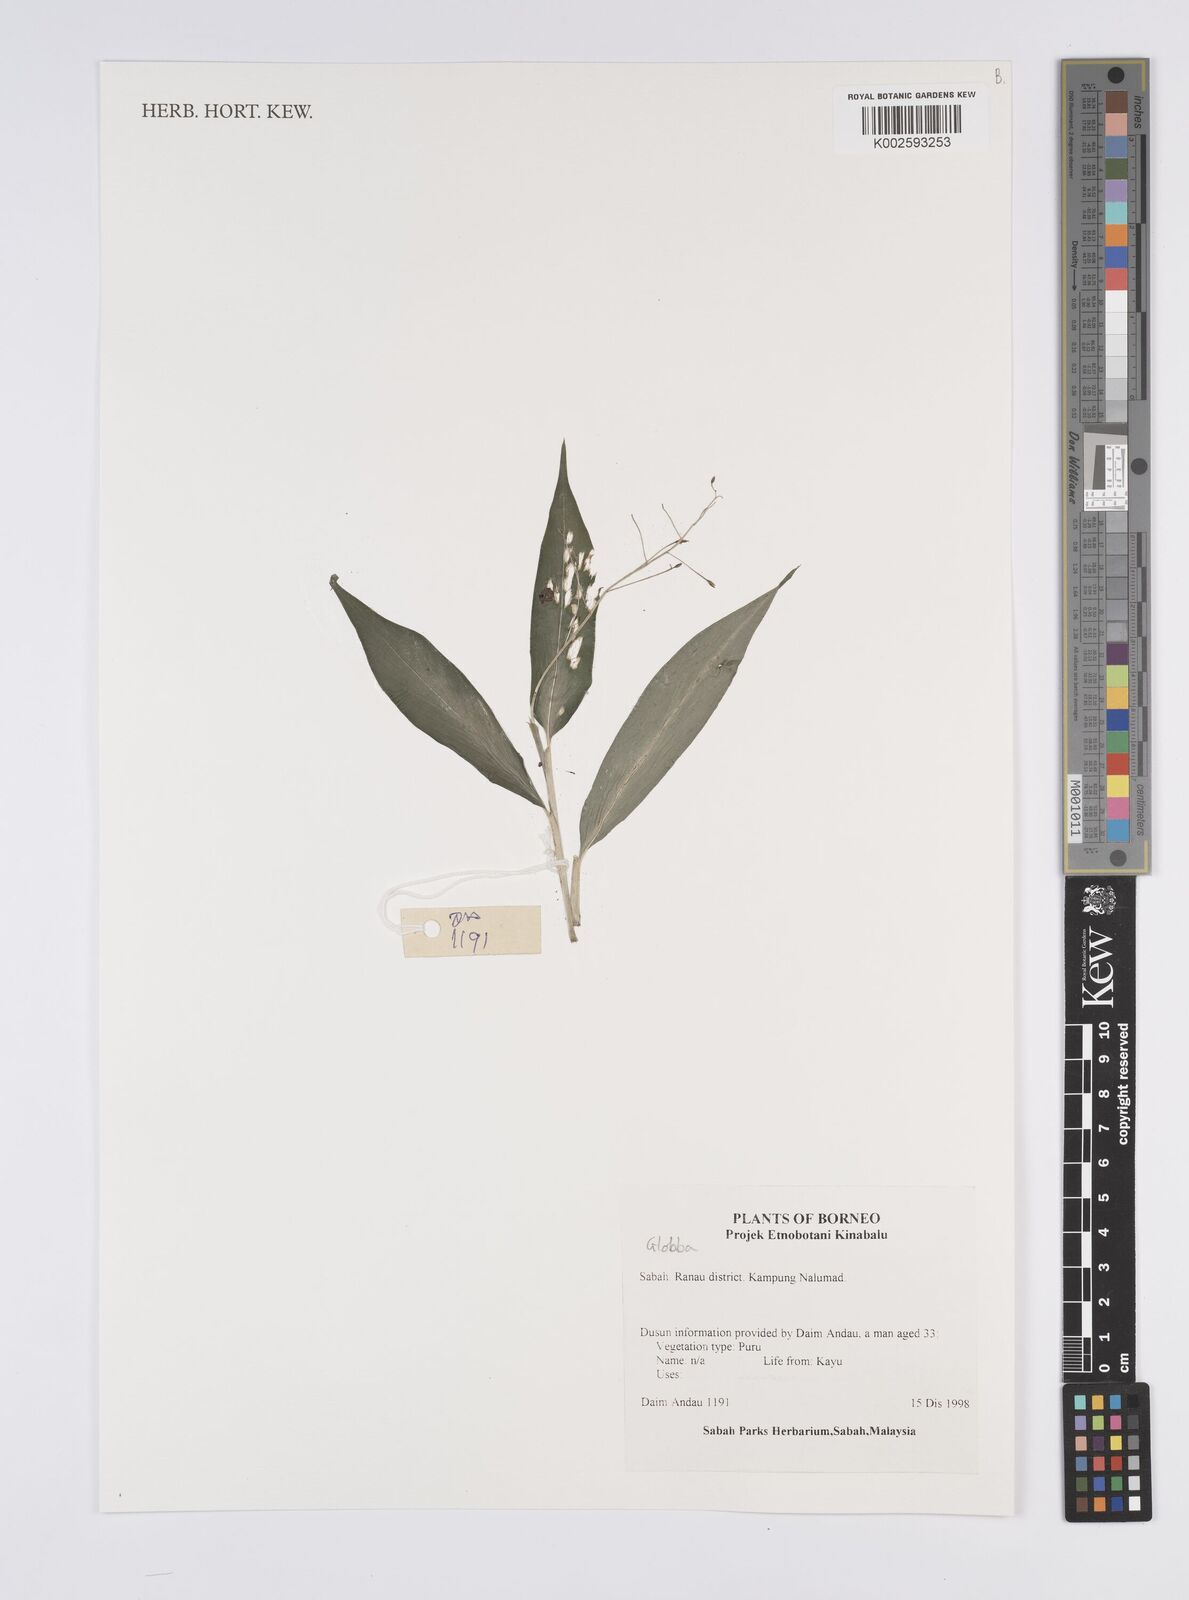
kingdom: Plantae
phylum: Tracheophyta
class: Liliopsida
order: Zingiberales
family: Zingiberaceae
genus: Globba
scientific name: Globba
